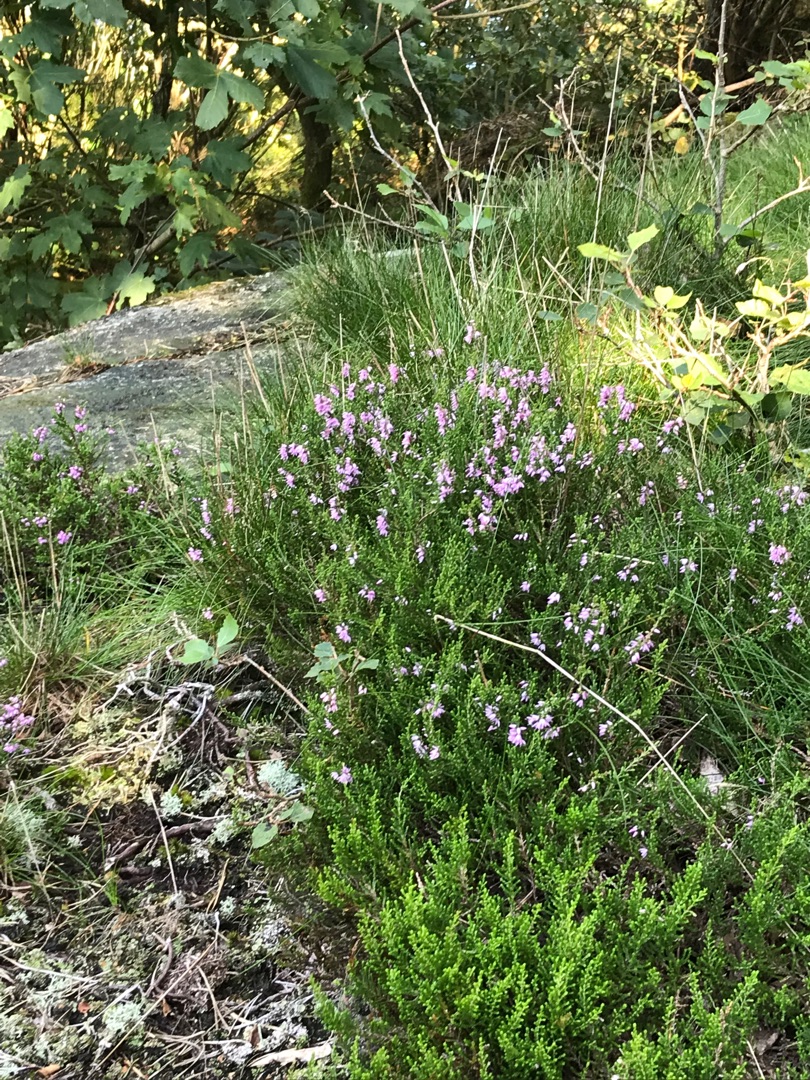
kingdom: Plantae
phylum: Tracheophyta
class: Magnoliopsida
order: Ericales
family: Ericaceae
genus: Calluna
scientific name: Calluna vulgaris
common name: Hedelyng
